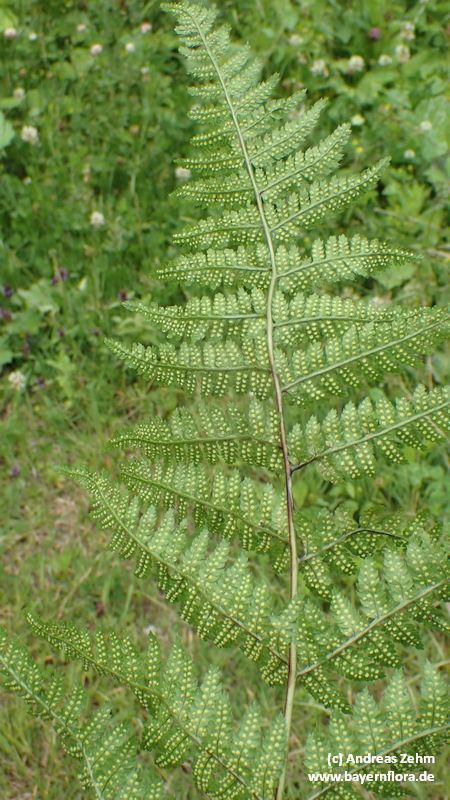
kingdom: Plantae
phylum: Tracheophyta
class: Polypodiopsida
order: Polypodiales
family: Dryopteridaceae
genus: Dryopteris
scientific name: Dryopteris
